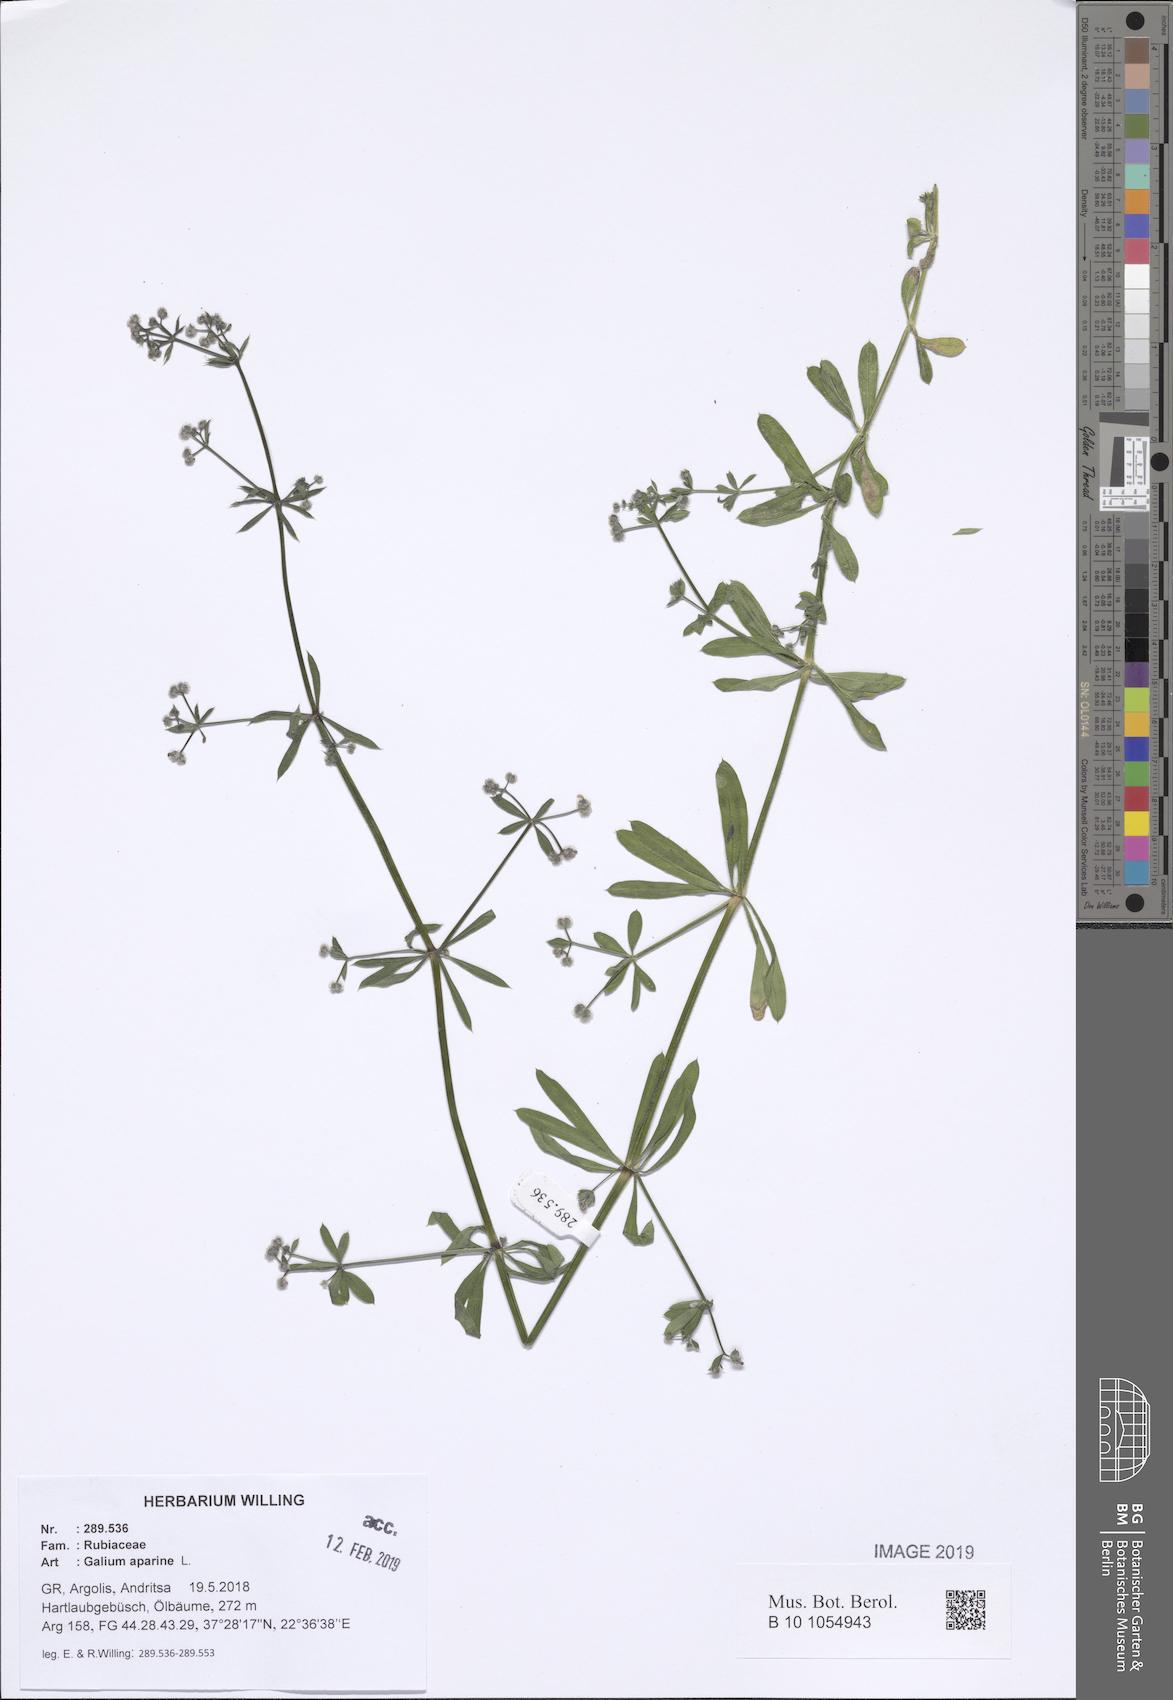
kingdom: Plantae
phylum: Tracheophyta
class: Magnoliopsida
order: Gentianales
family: Rubiaceae
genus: Galium
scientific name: Galium aparine
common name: Cleavers
